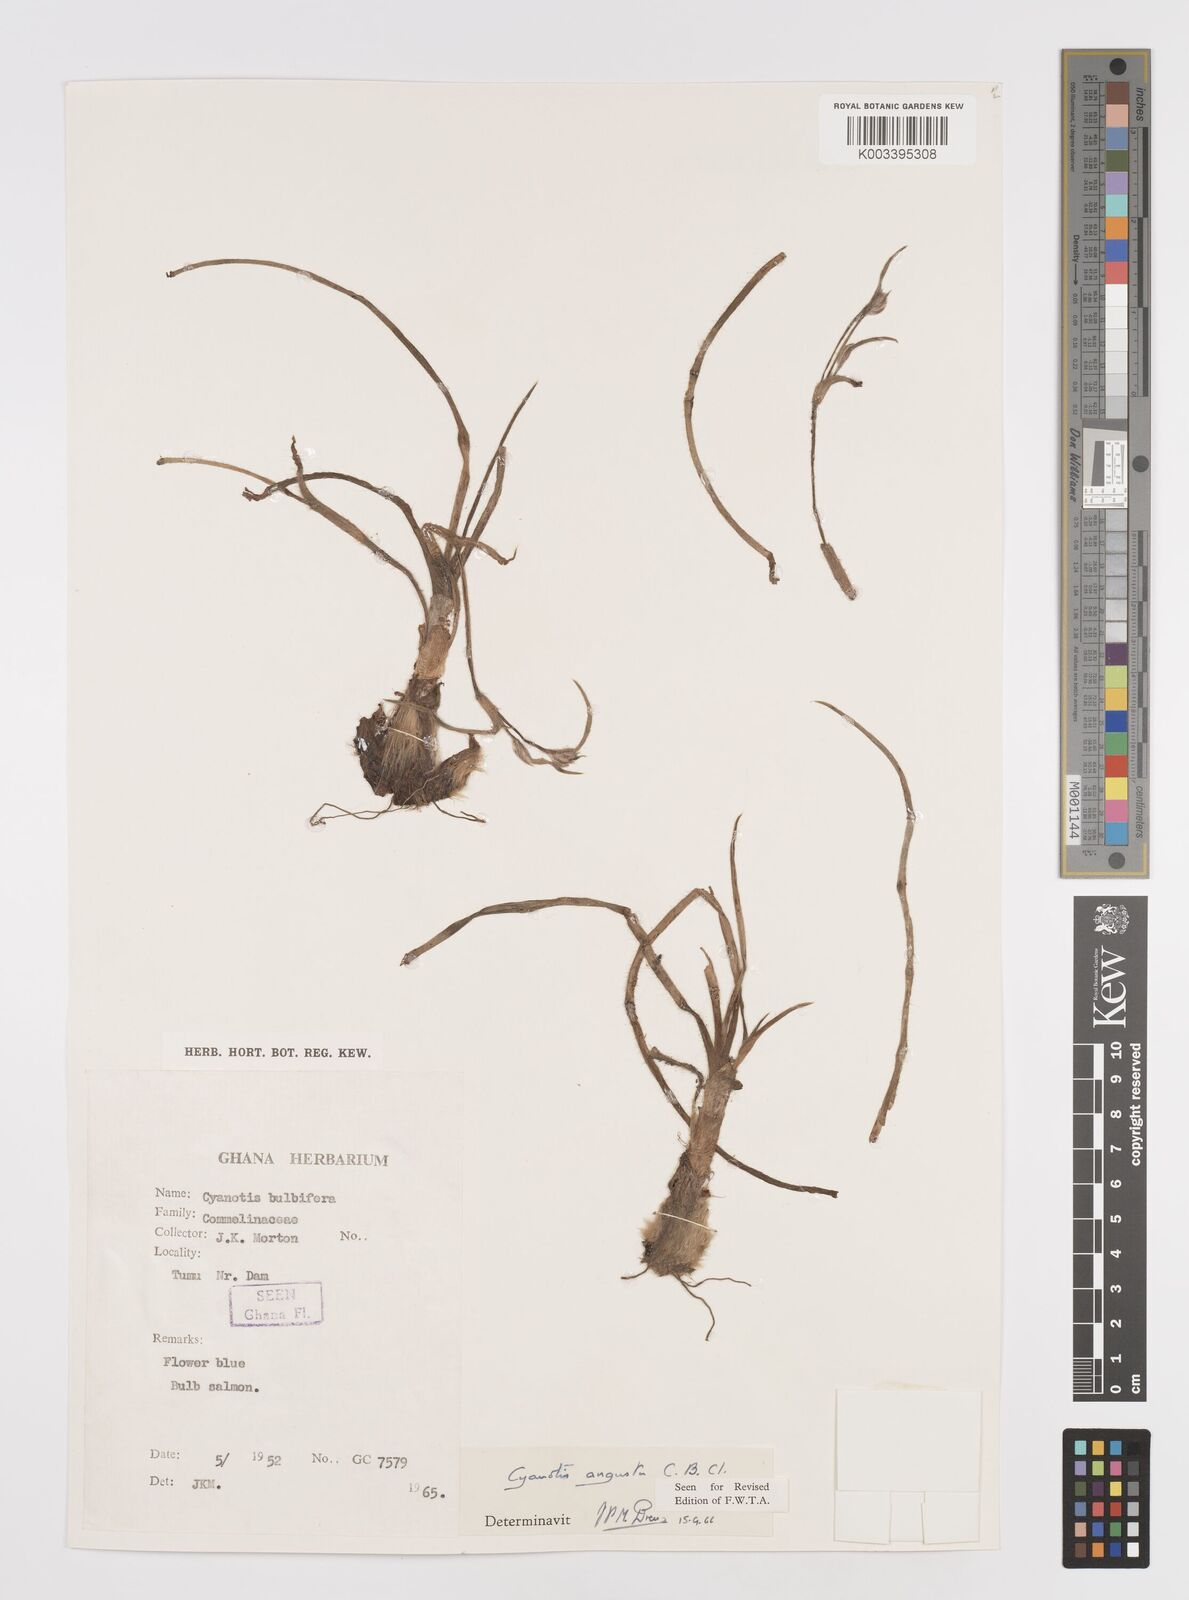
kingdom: Plantae
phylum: Tracheophyta
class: Liliopsida
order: Commelinales
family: Commelinaceae
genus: Cyanotis
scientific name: Cyanotis angusta
